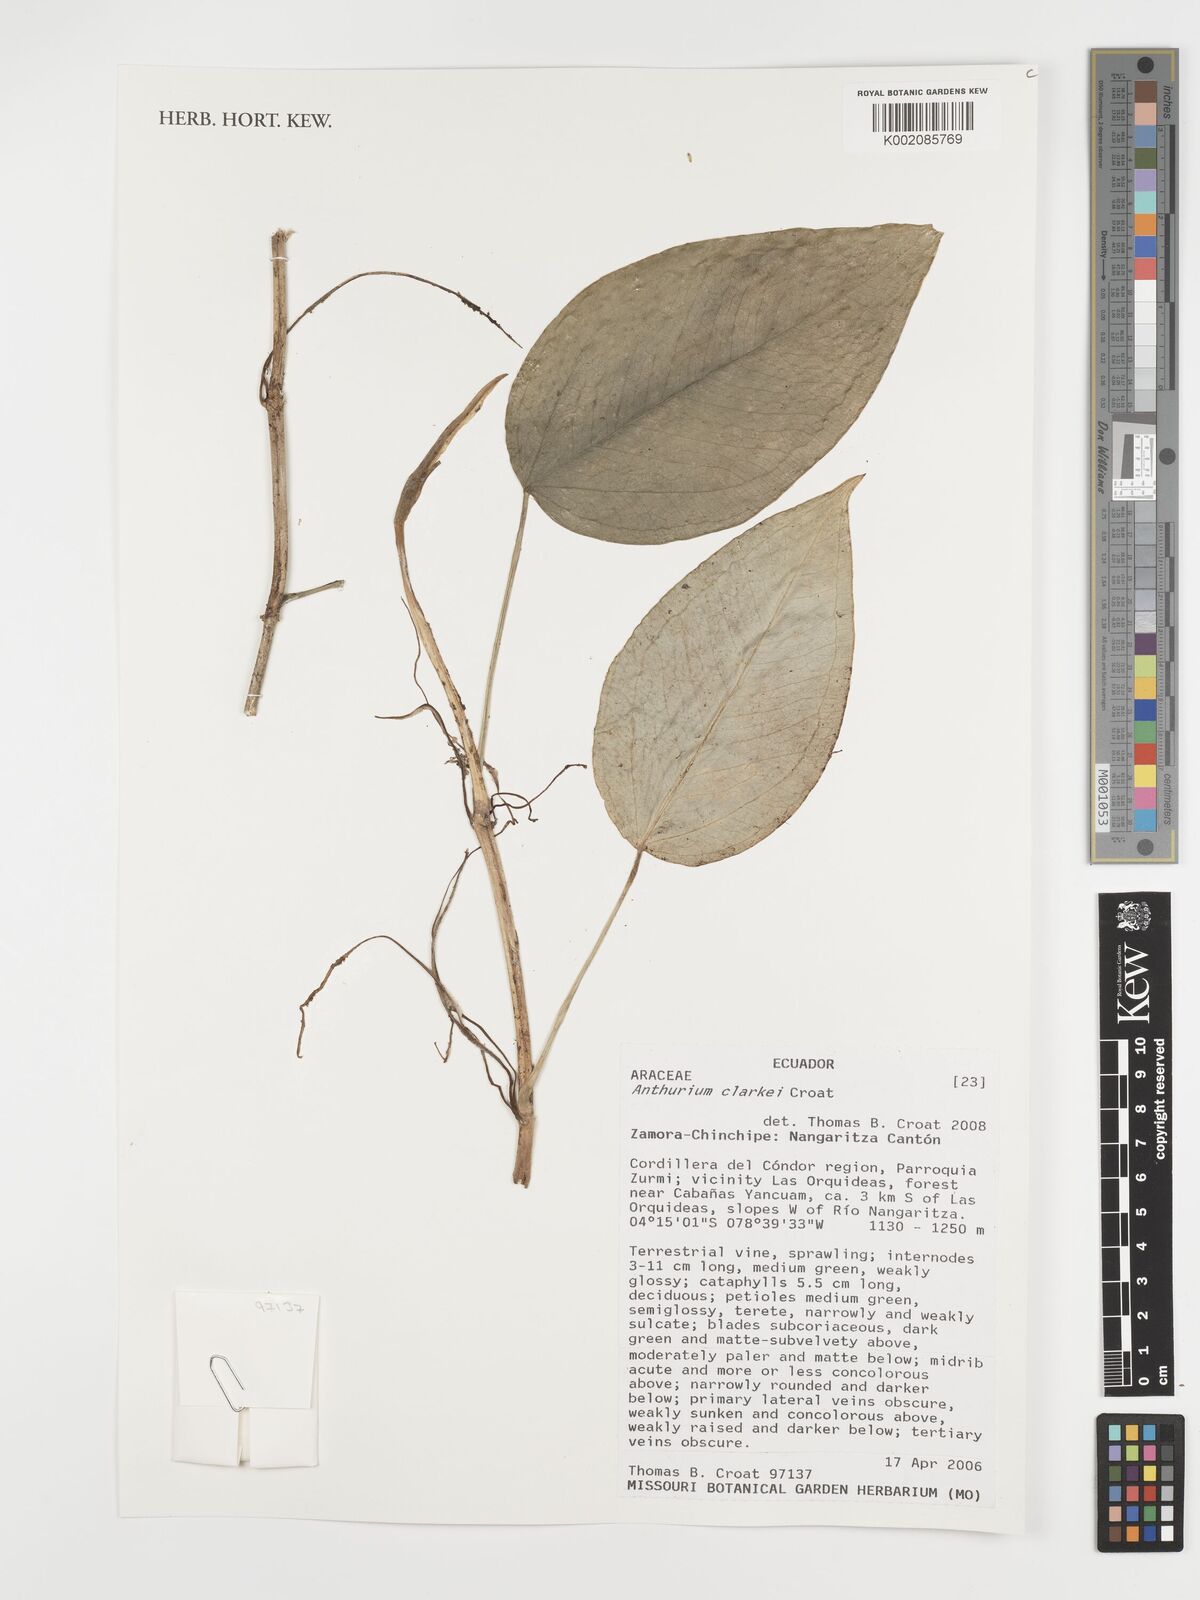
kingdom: Plantae
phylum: Tracheophyta
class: Liliopsida
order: Alismatales
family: Araceae
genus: Anthurium
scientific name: Anthurium clarkei
